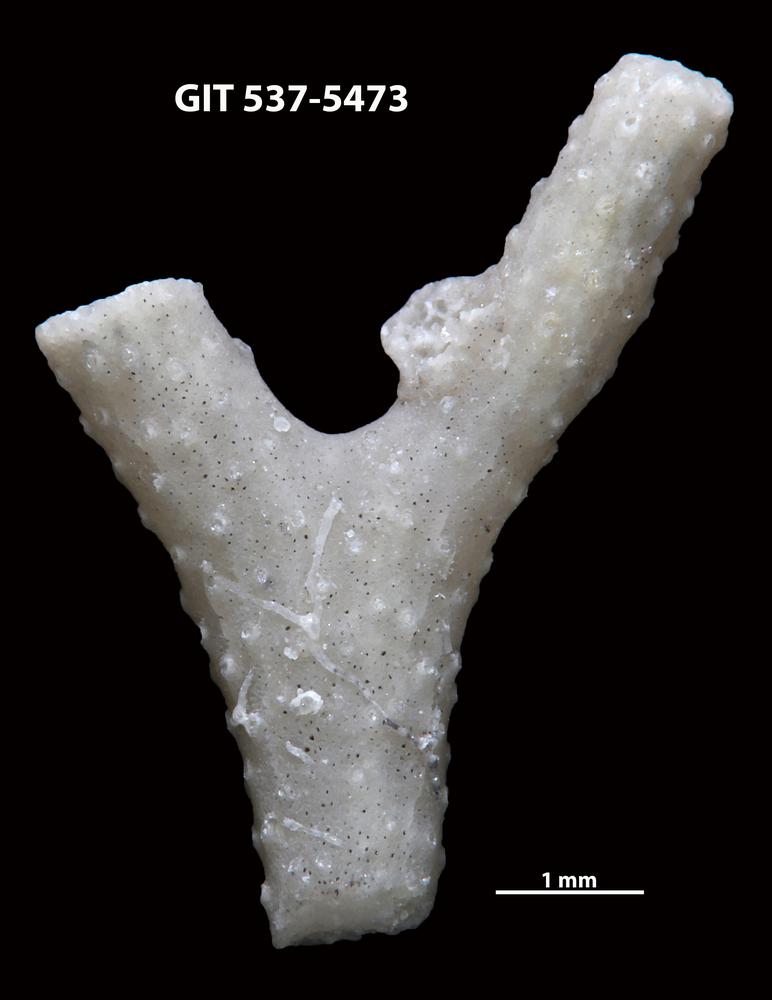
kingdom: Animalia
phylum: Bryozoa
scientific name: Bryozoa
